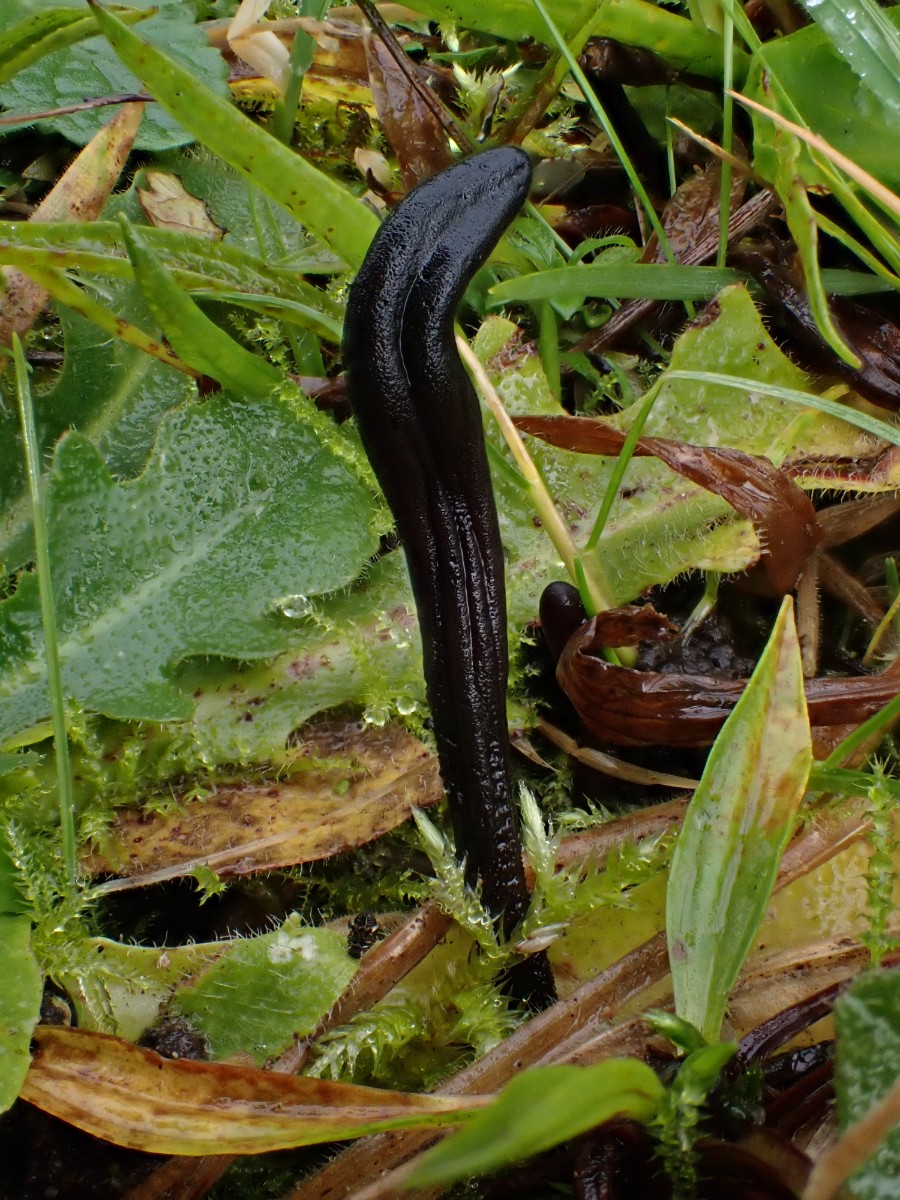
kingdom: Fungi
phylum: Ascomycota
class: Geoglossomycetes
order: Geoglossales
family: Geoglossaceae
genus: Geoglossum
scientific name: Geoglossum umbratile
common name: slank jordtunge
